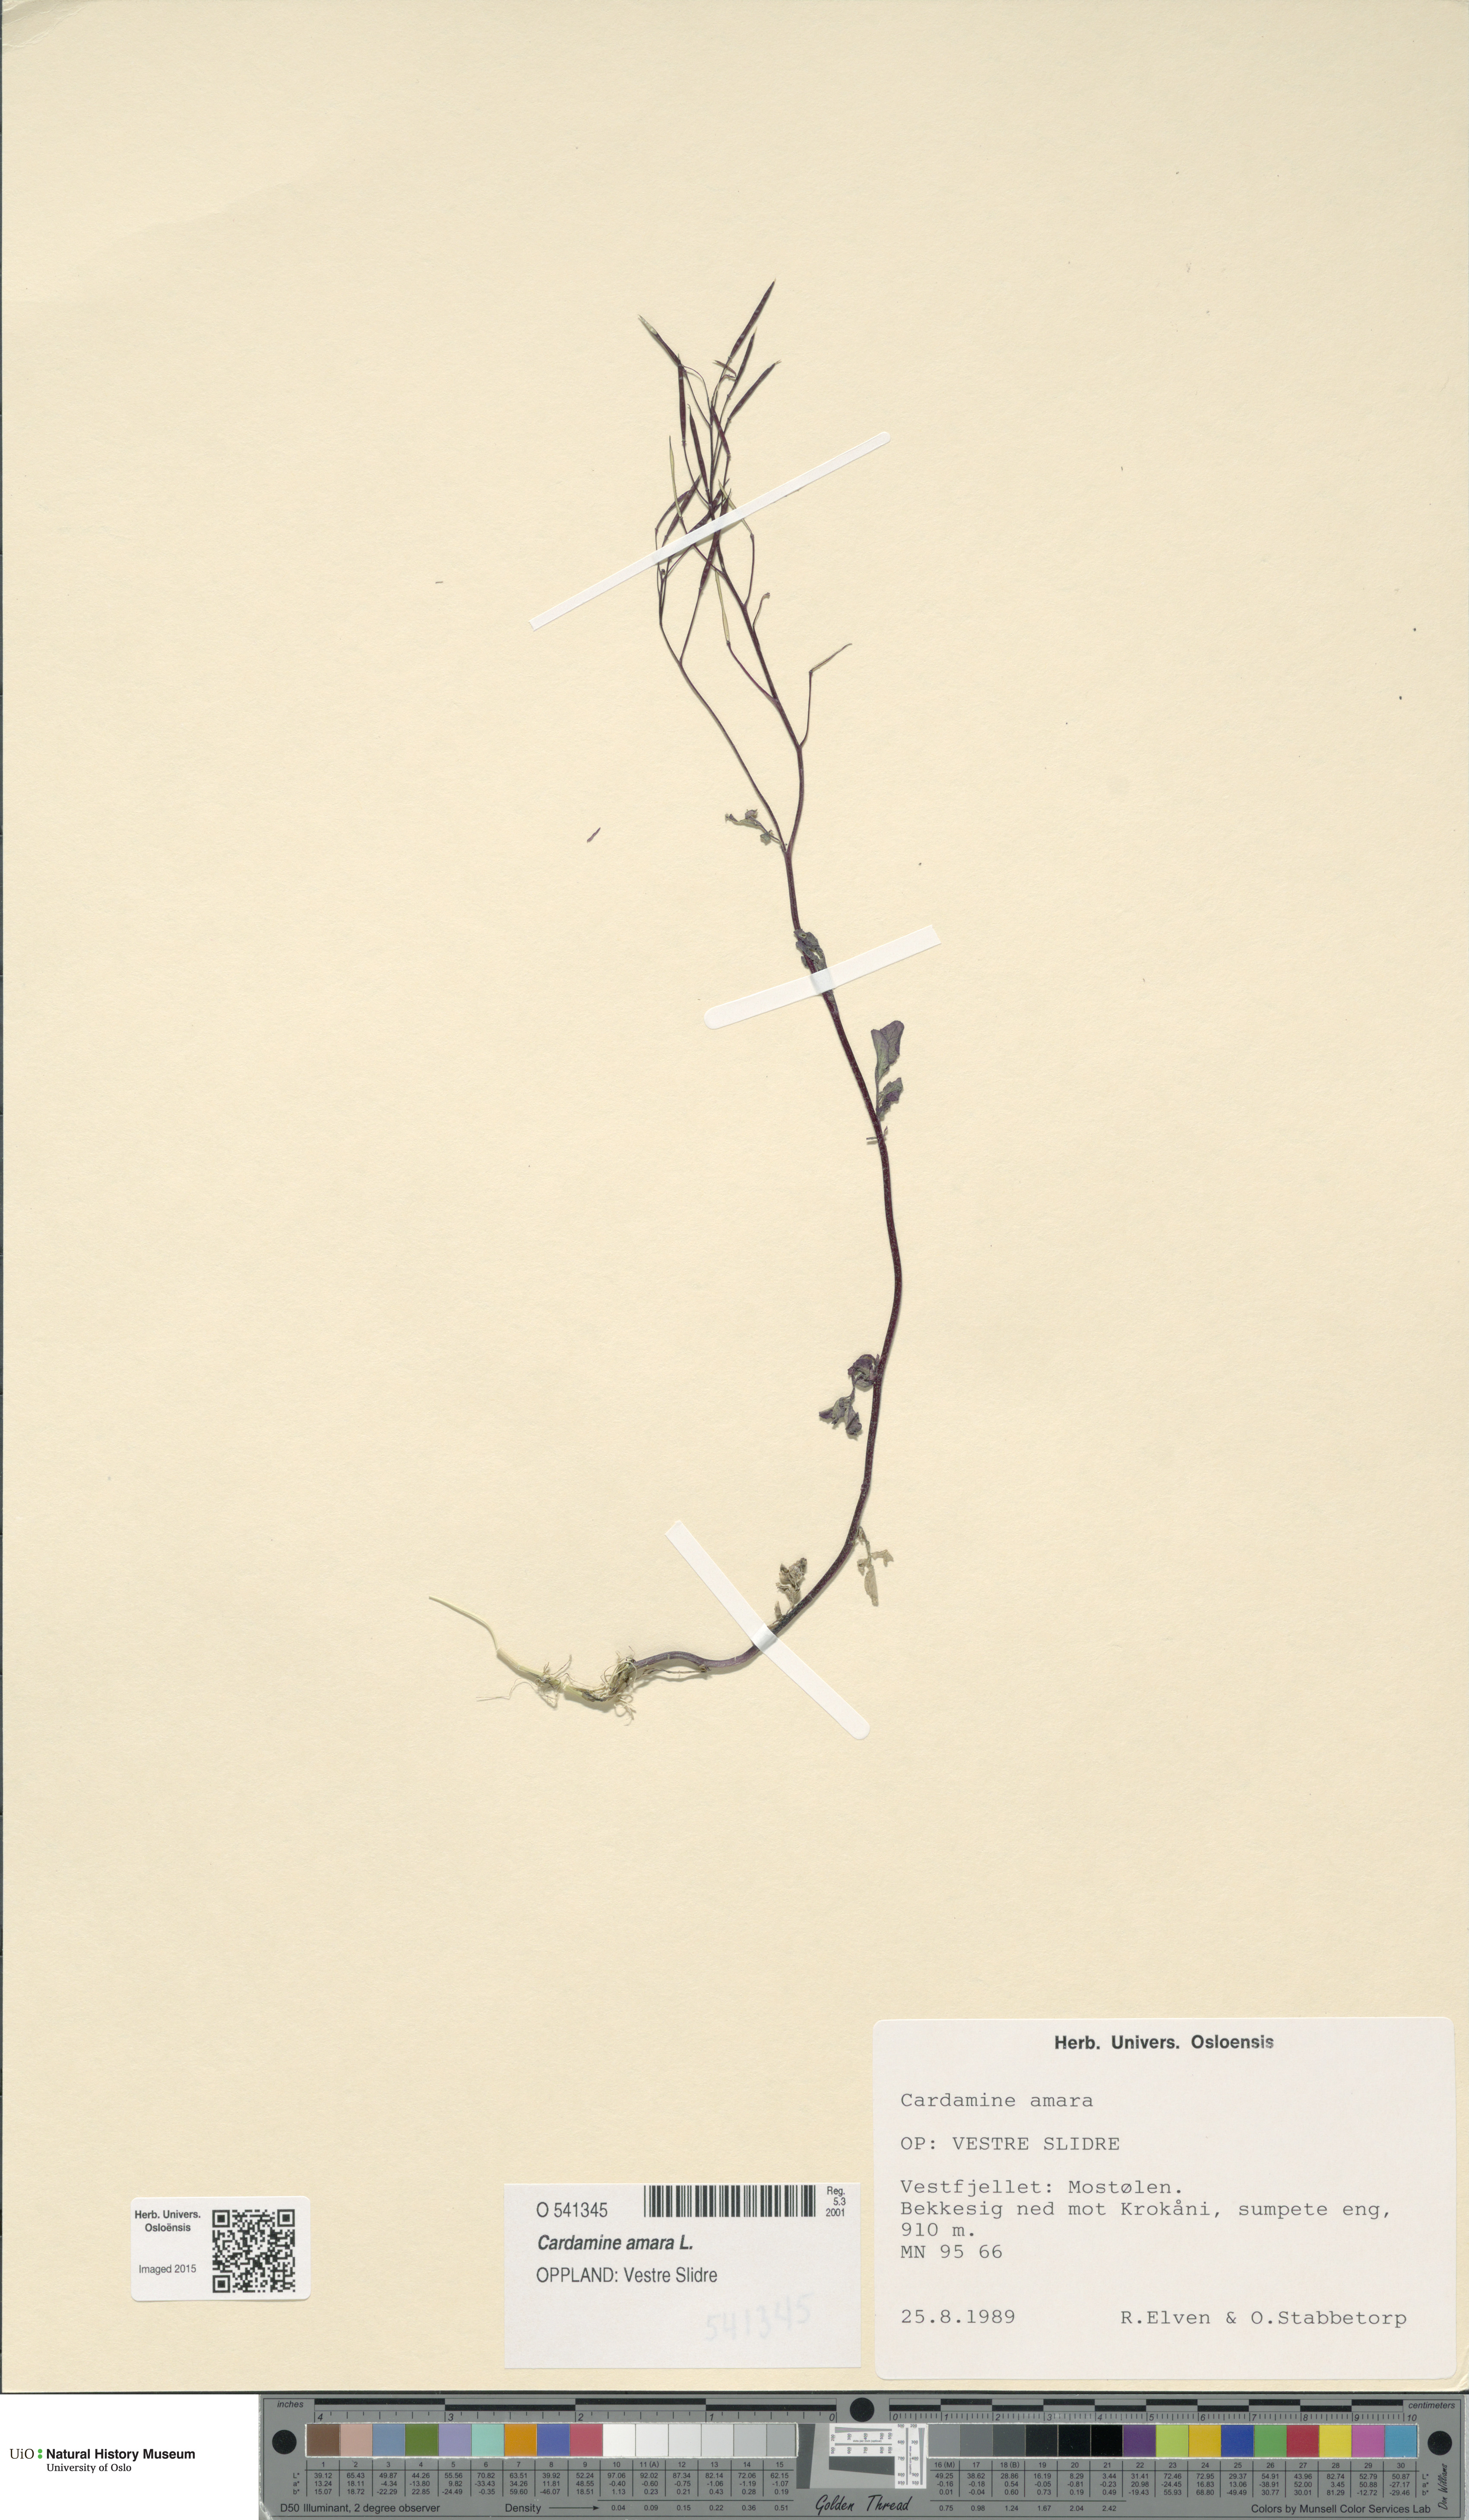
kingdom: Plantae
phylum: Tracheophyta
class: Magnoliopsida
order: Brassicales
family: Brassicaceae
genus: Cardamine
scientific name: Cardamine amara
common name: Large bitter-cress
